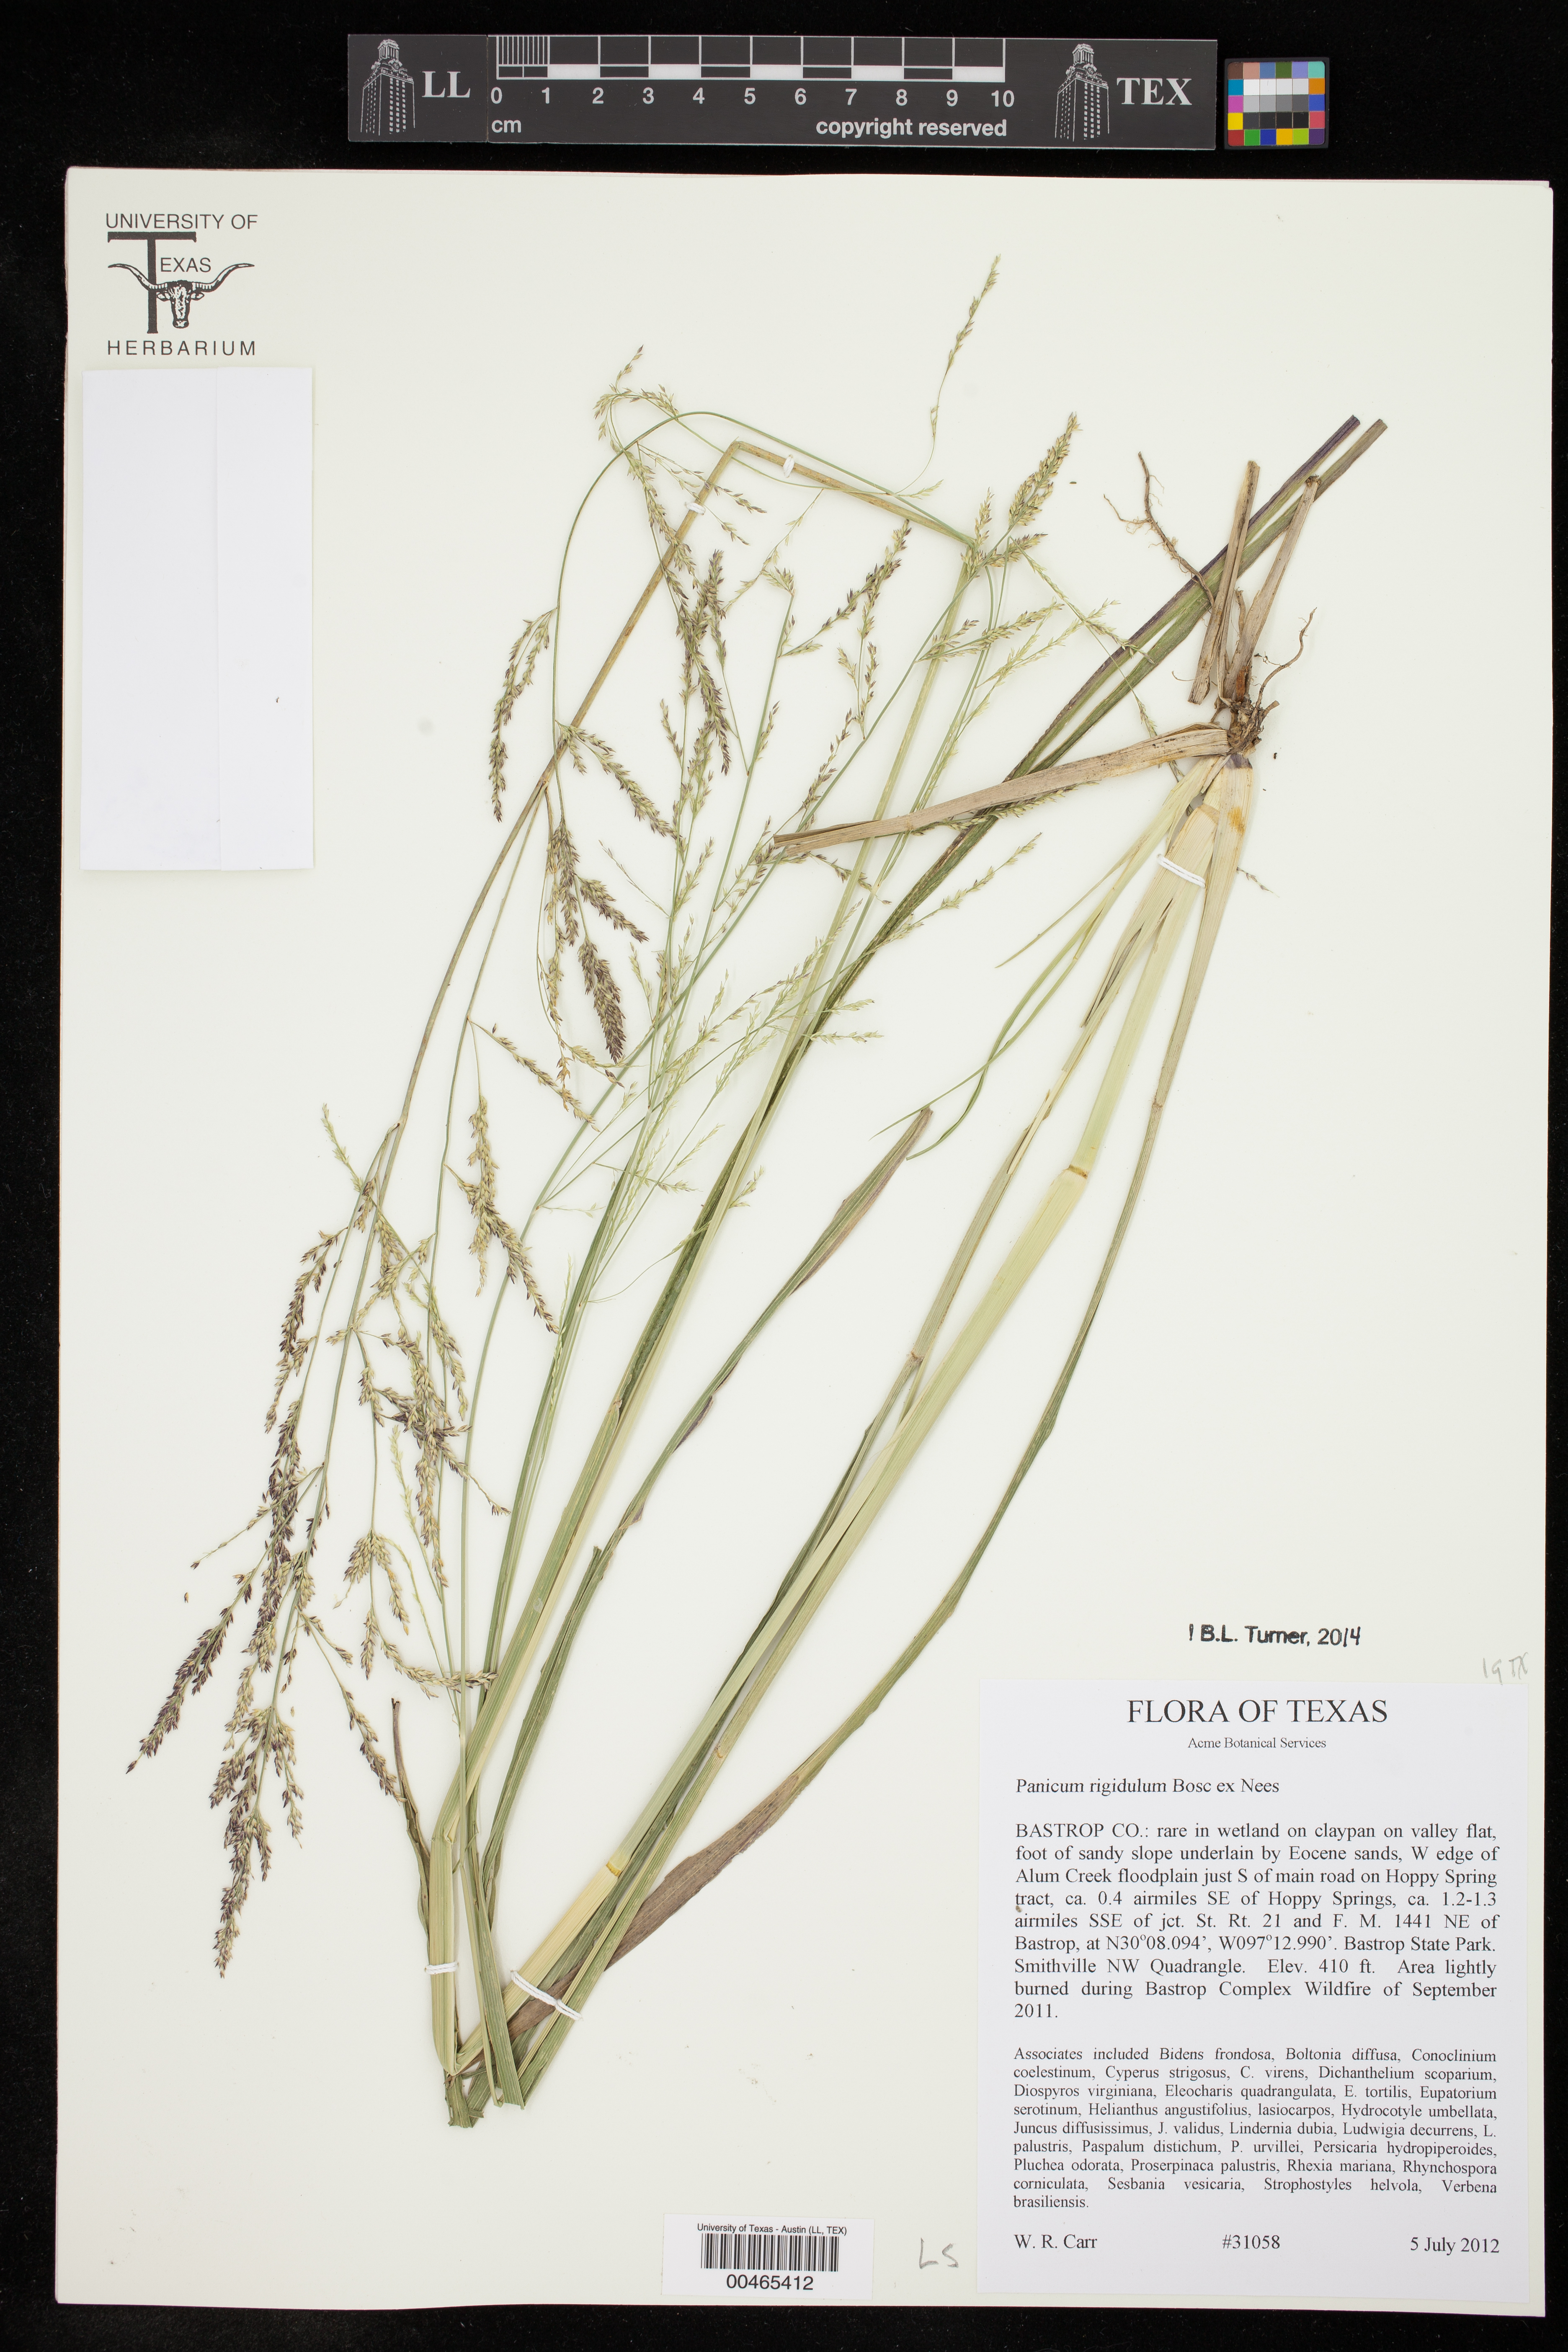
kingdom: Plantae
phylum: Tracheophyta
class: Liliopsida
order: Poales
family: Poaceae
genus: Coleataenia
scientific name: Coleataenia rigidula
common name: Redtop panicgrass
